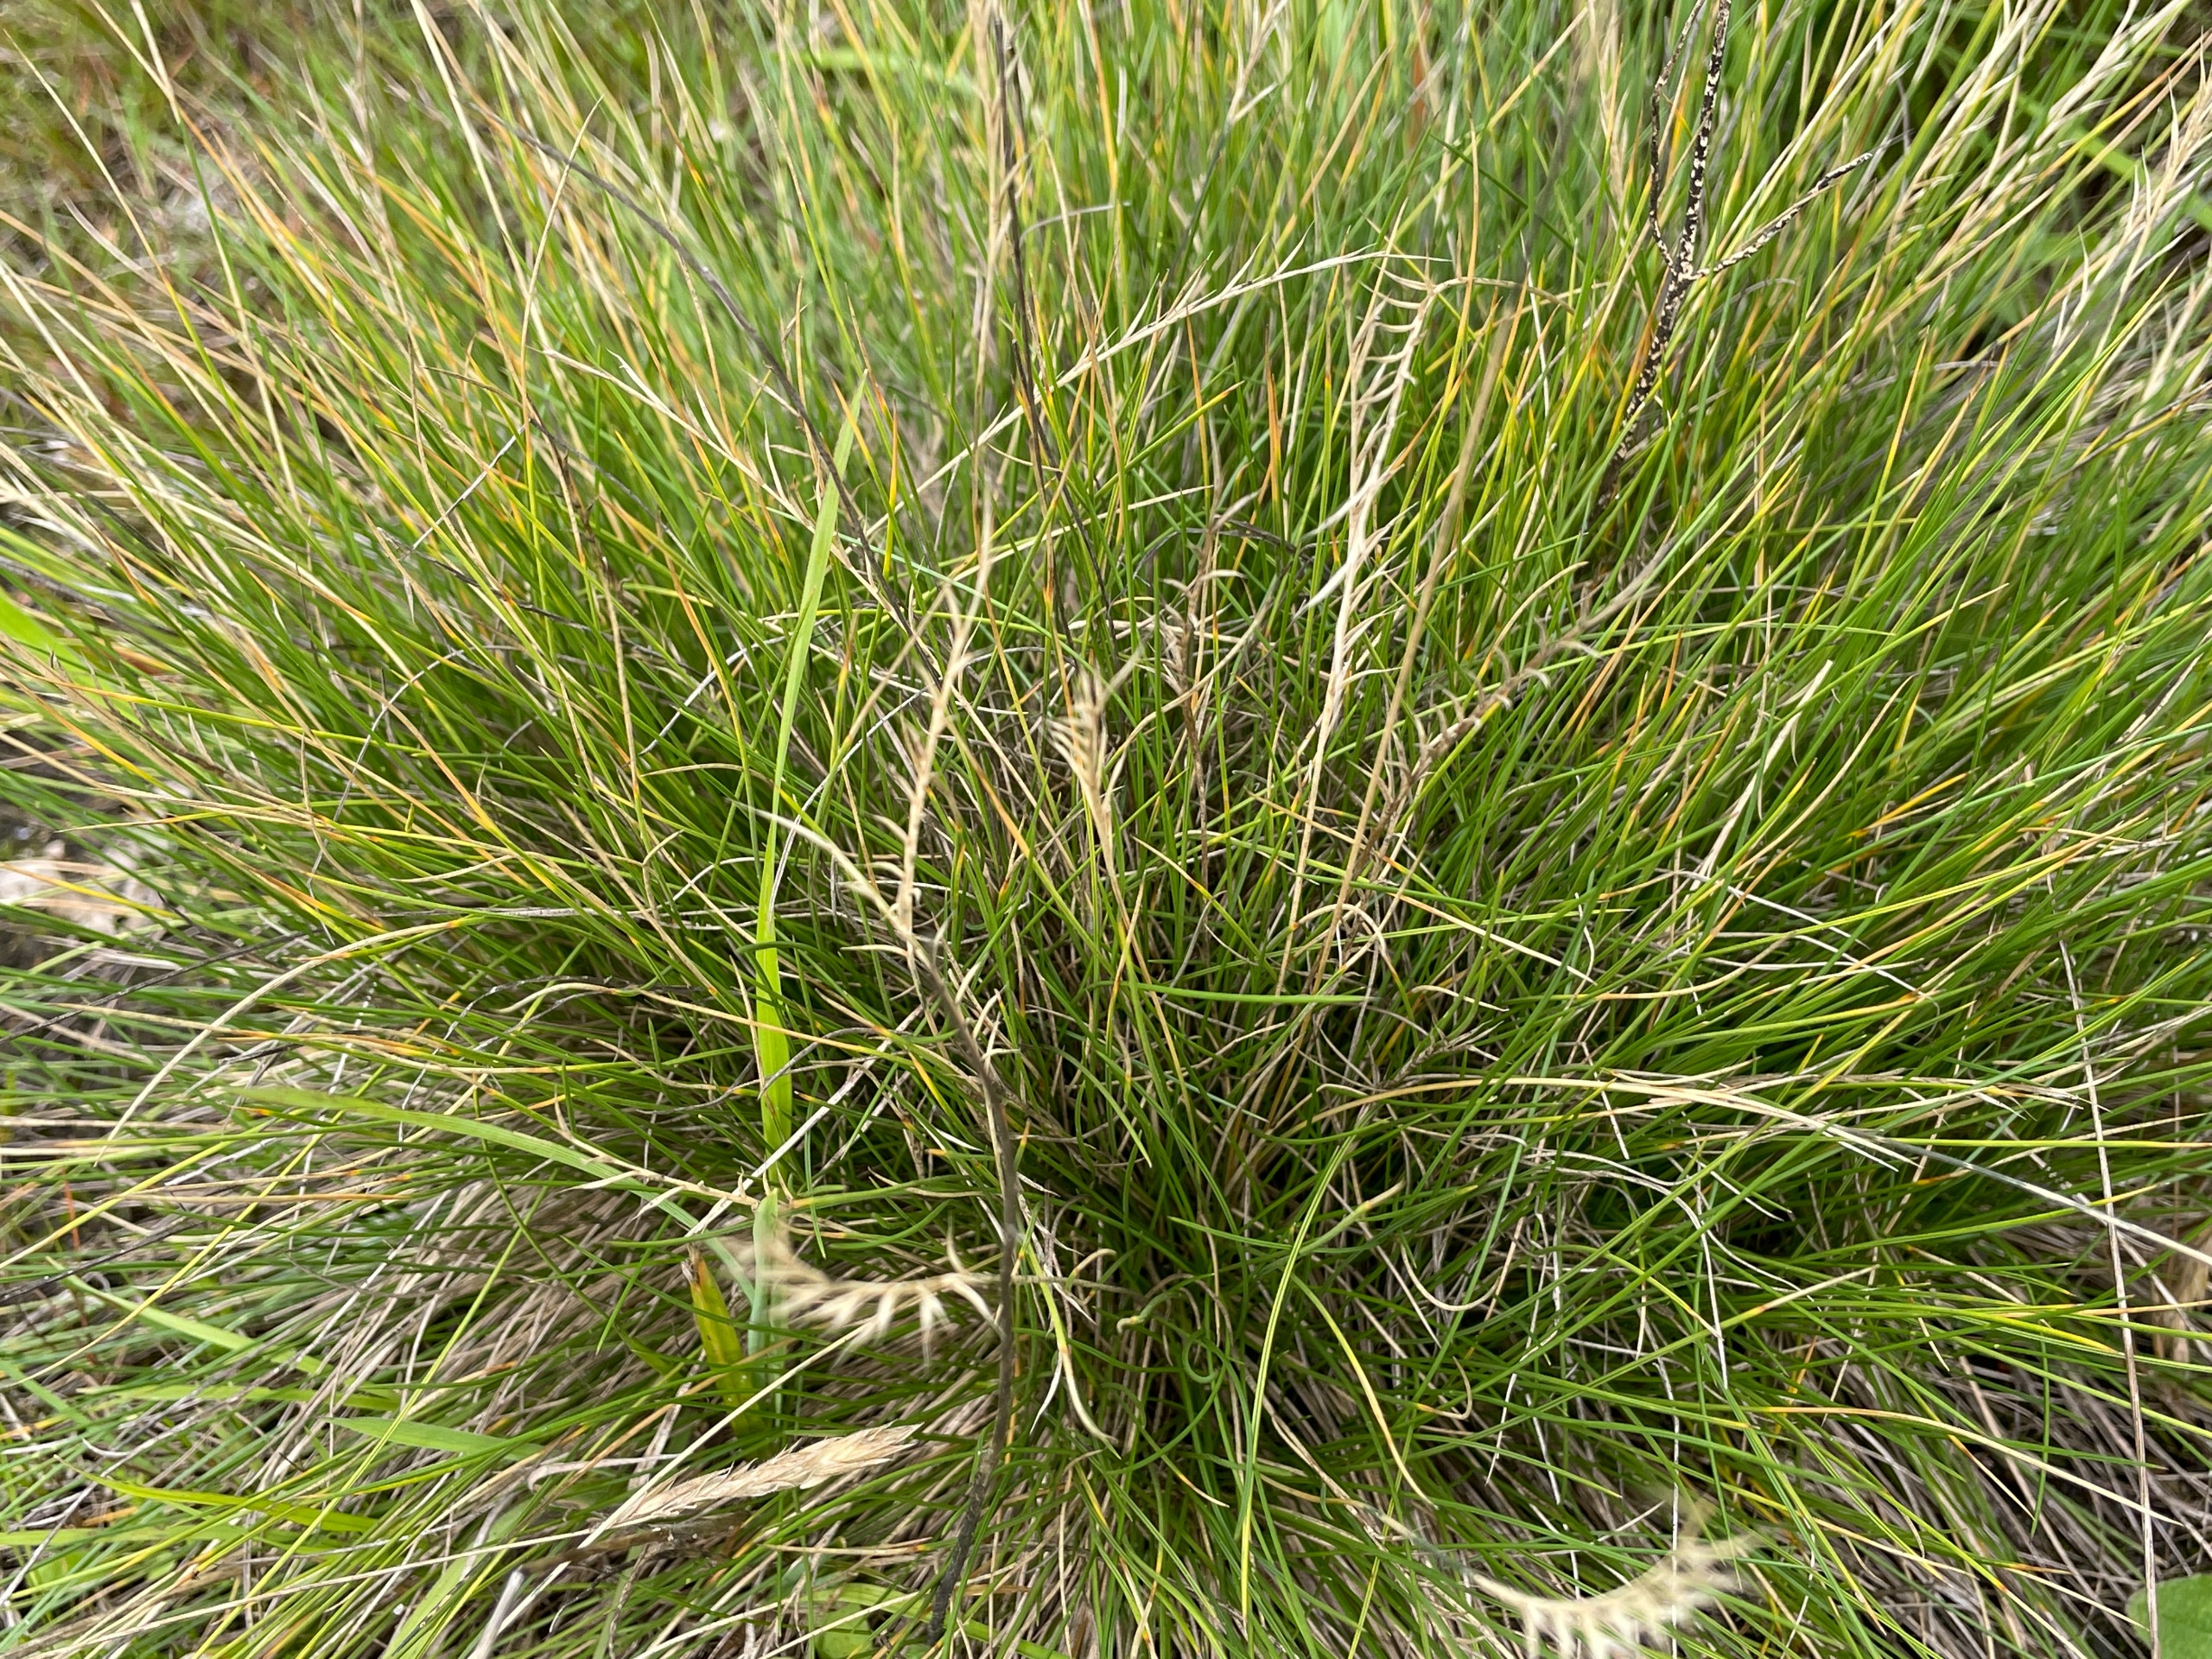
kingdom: Plantae
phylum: Tracheophyta
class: Liliopsida
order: Poales
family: Poaceae
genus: Nardus
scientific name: Nardus stricta
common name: Katteskæg
